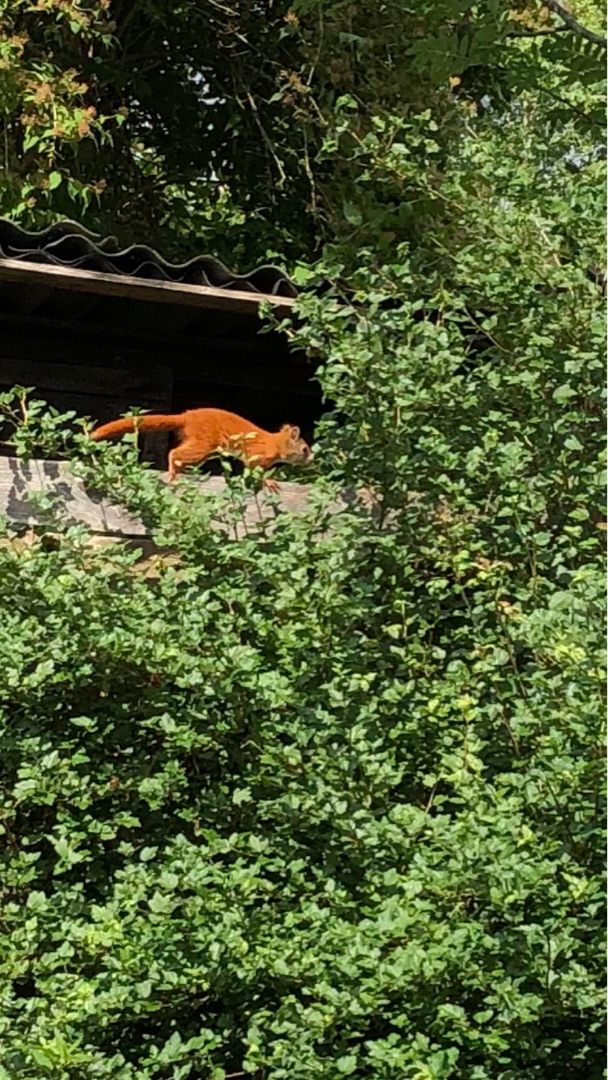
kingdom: Animalia
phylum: Chordata
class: Mammalia
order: Rodentia
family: Sciuridae
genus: Sciurus
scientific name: Sciurus vulgaris
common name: Egern
